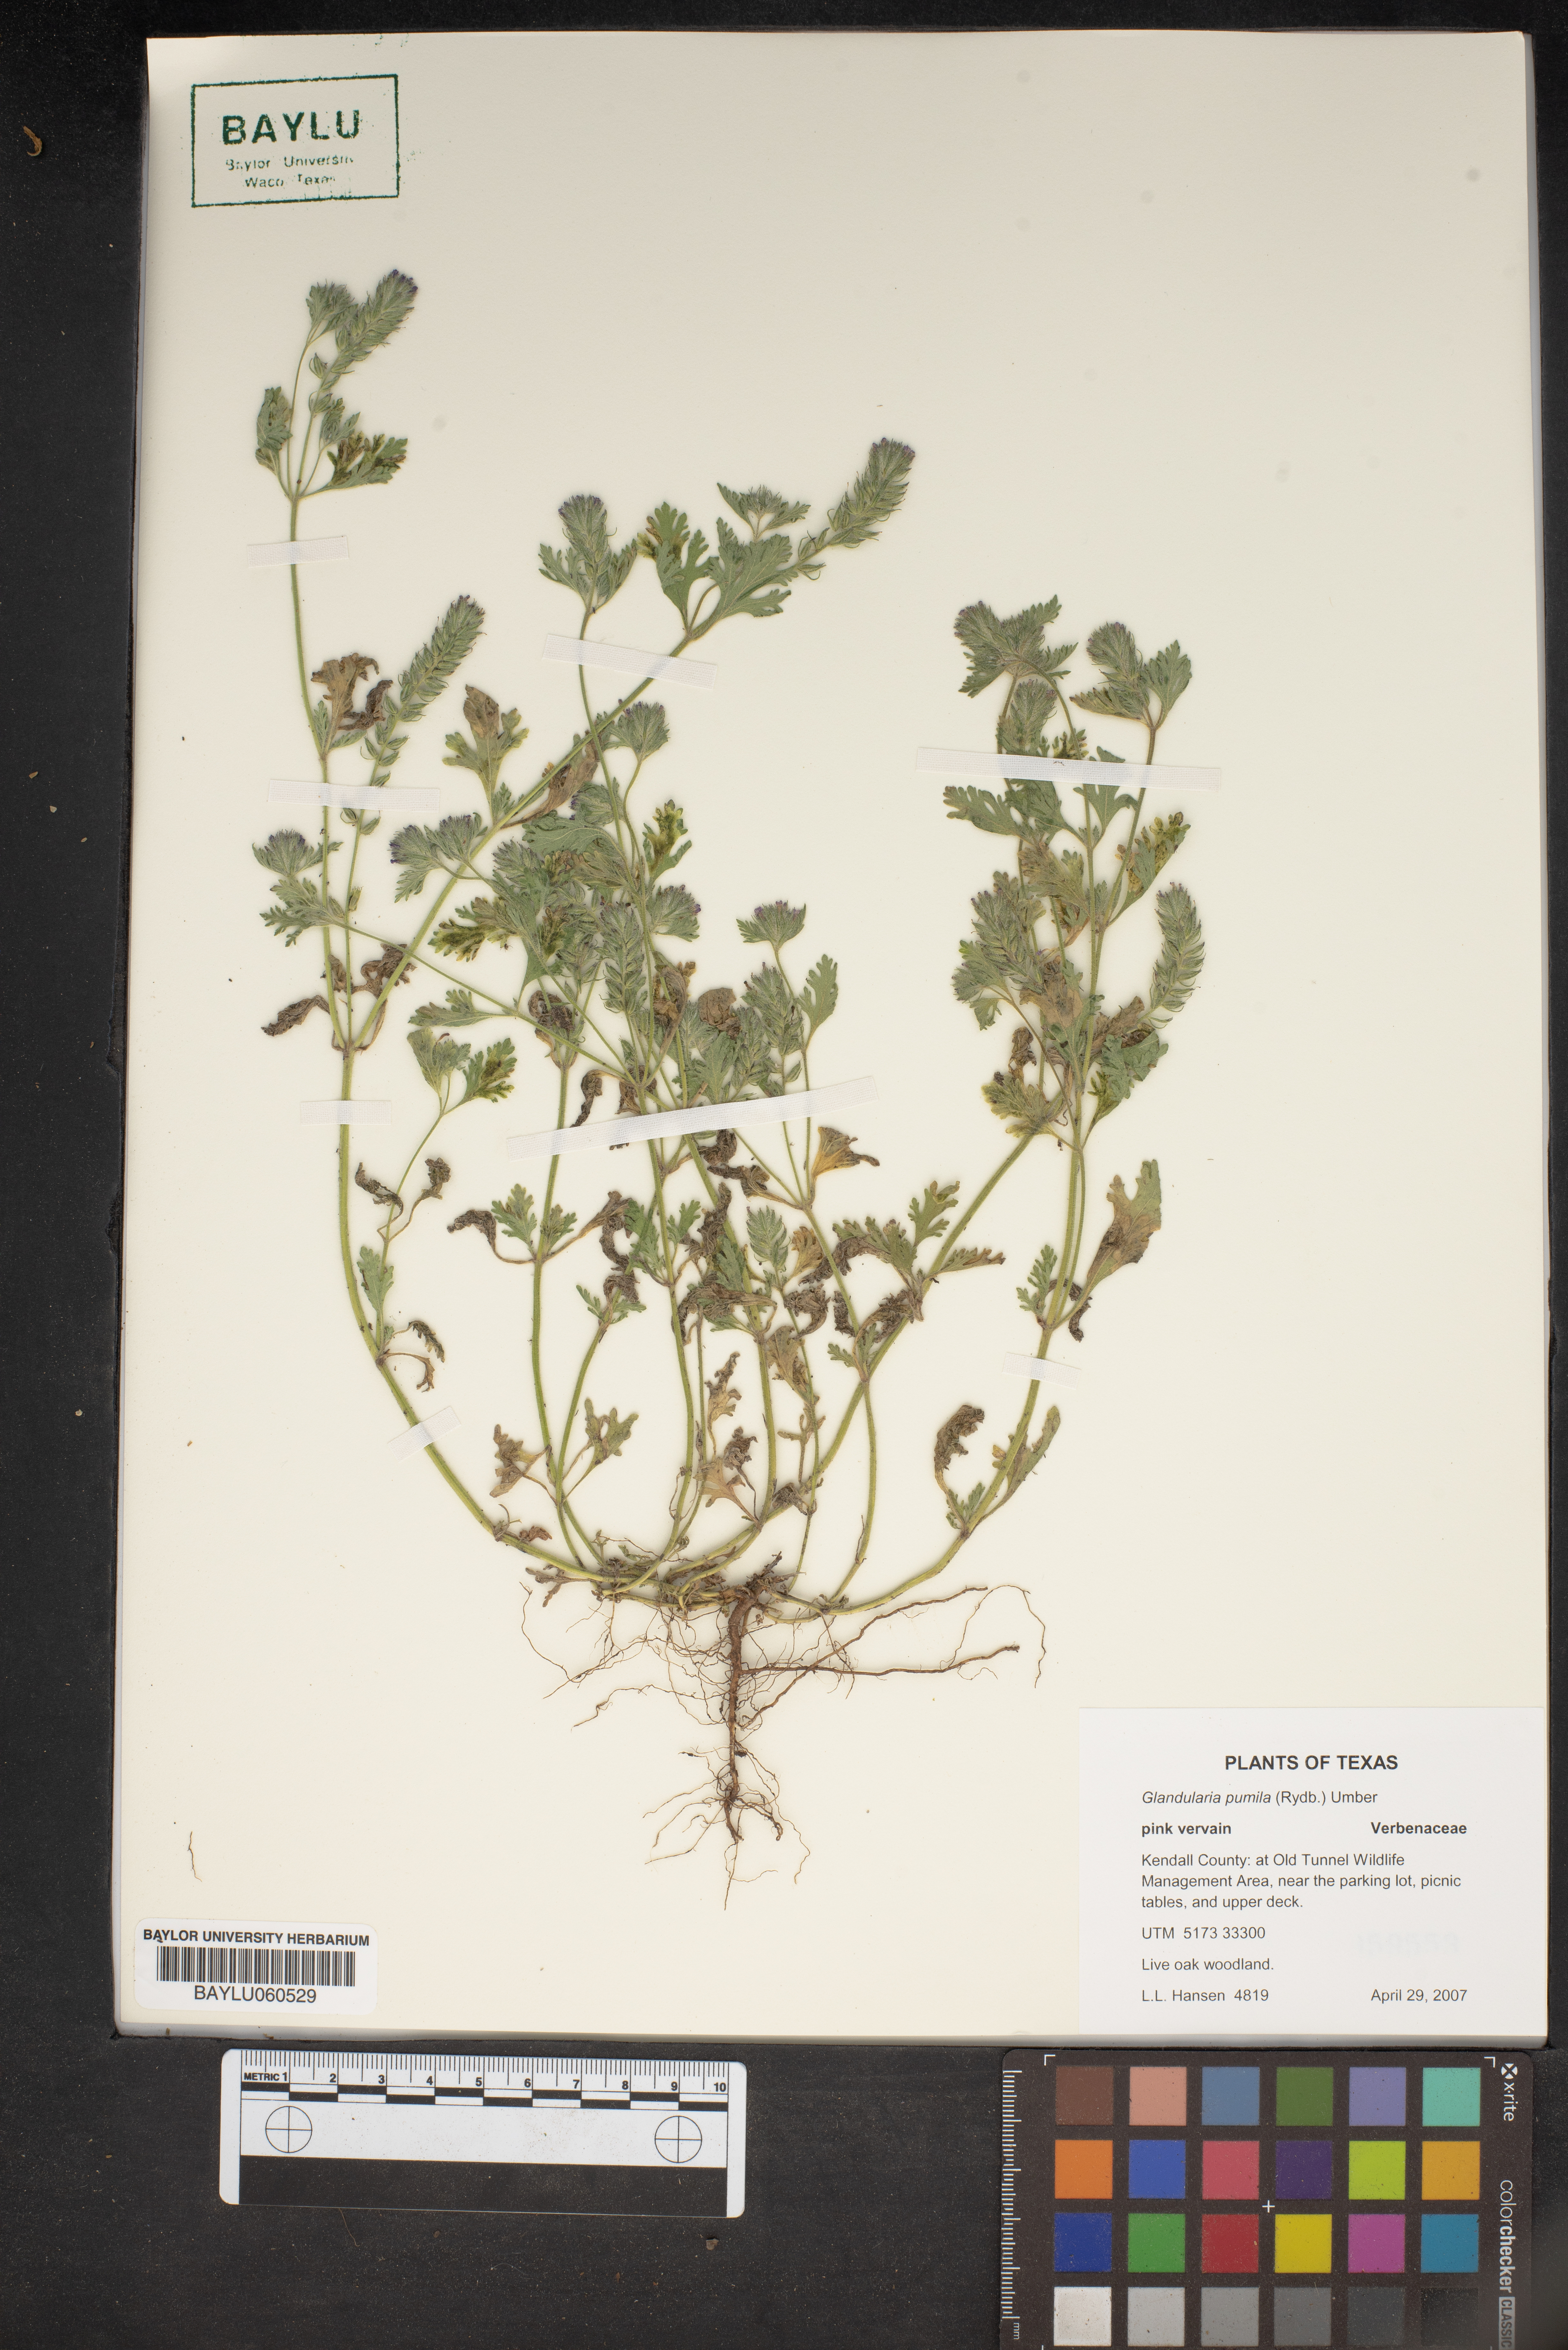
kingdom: Plantae
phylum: Tracheophyta
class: Magnoliopsida
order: Lamiales
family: Verbenaceae
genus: Verbena
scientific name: Verbena pumila
